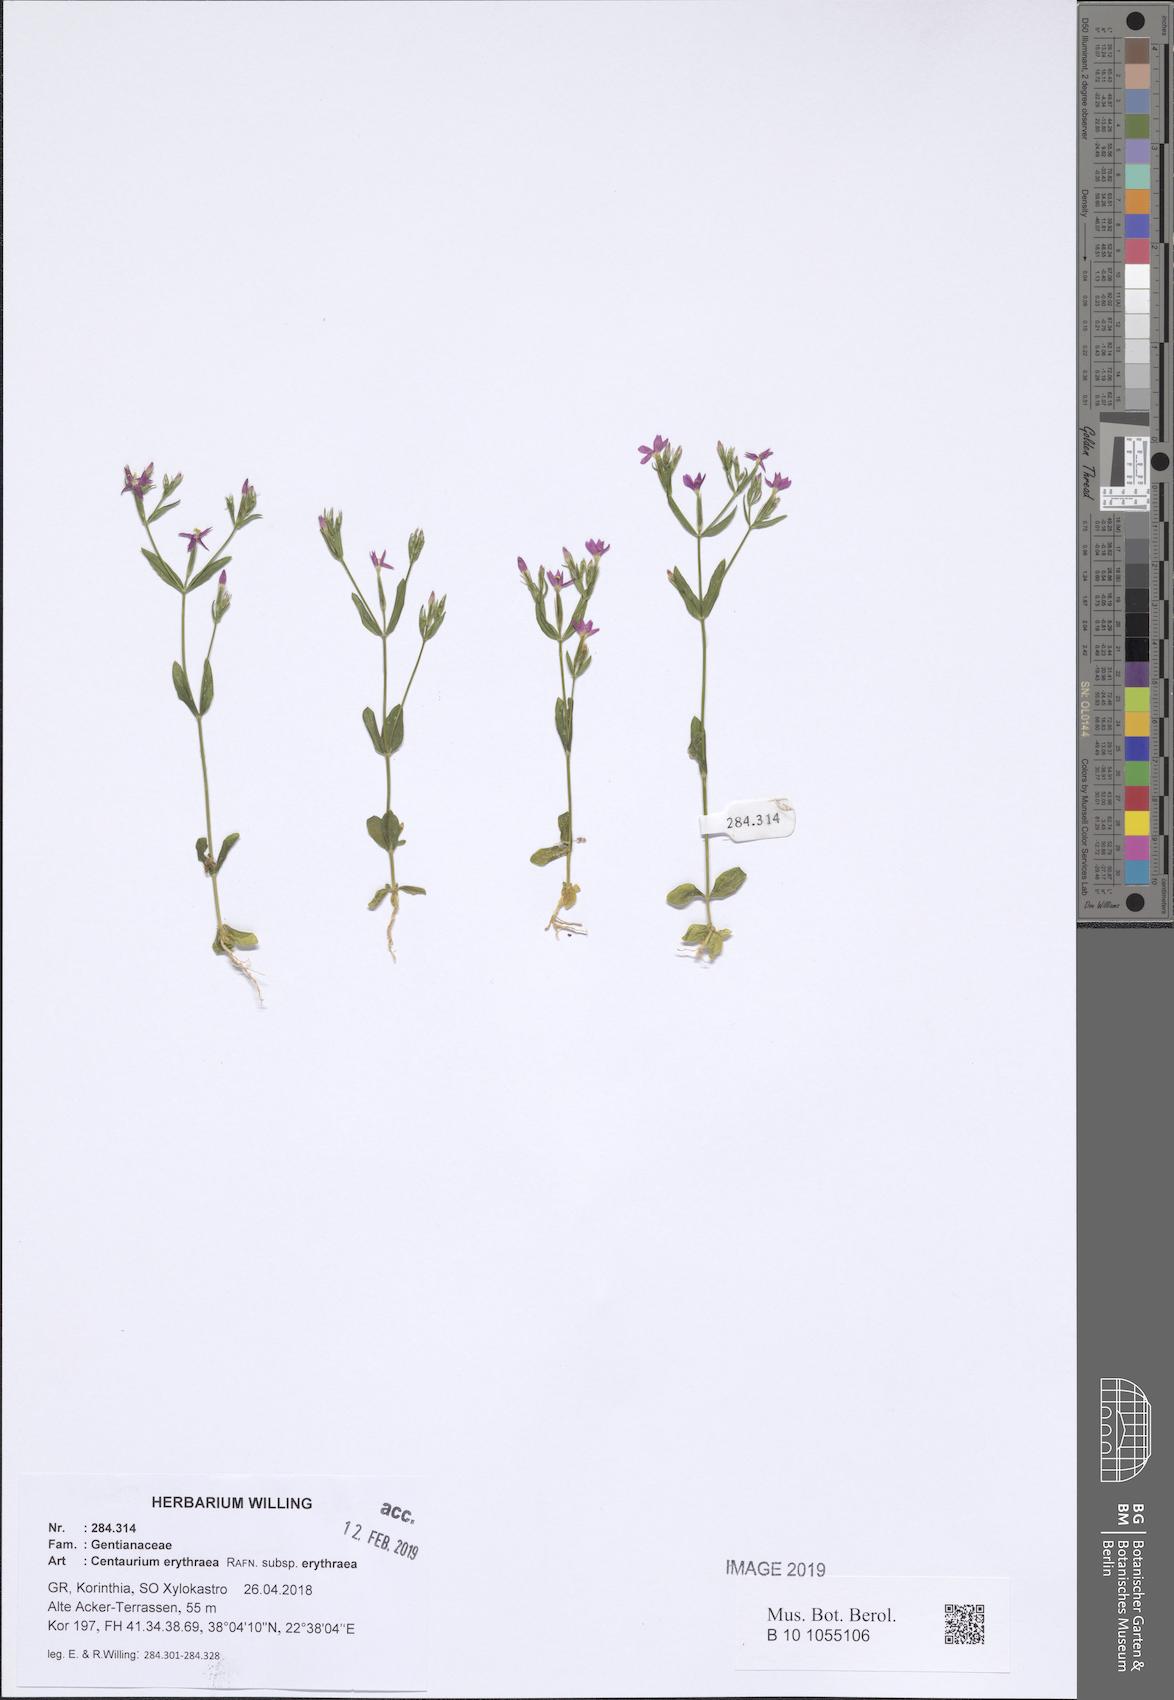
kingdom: Plantae
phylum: Tracheophyta
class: Magnoliopsida
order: Gentianales
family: Gentianaceae
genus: Centaurium
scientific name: Centaurium erythraea
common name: Common centaury
